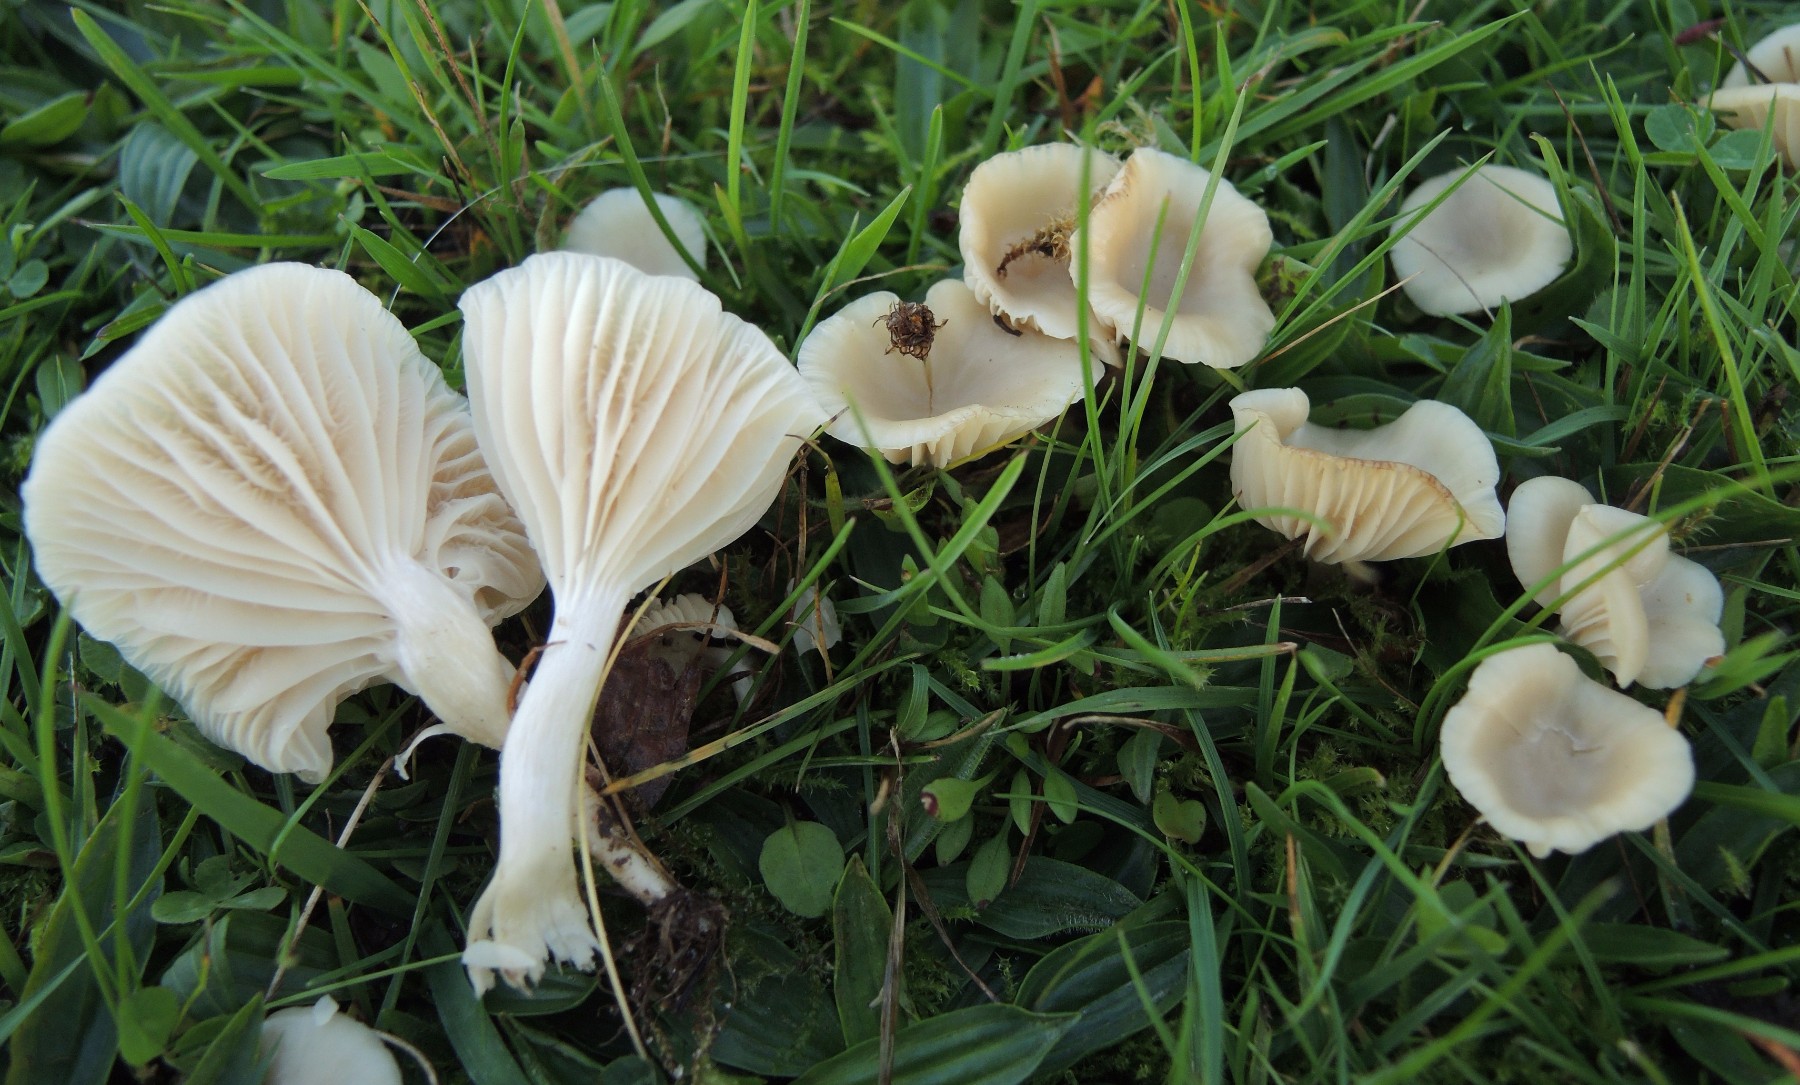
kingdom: Fungi
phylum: Basidiomycota
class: Agaricomycetes
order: Agaricales
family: Hygrophoraceae
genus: Cuphophyllus
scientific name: Cuphophyllus
